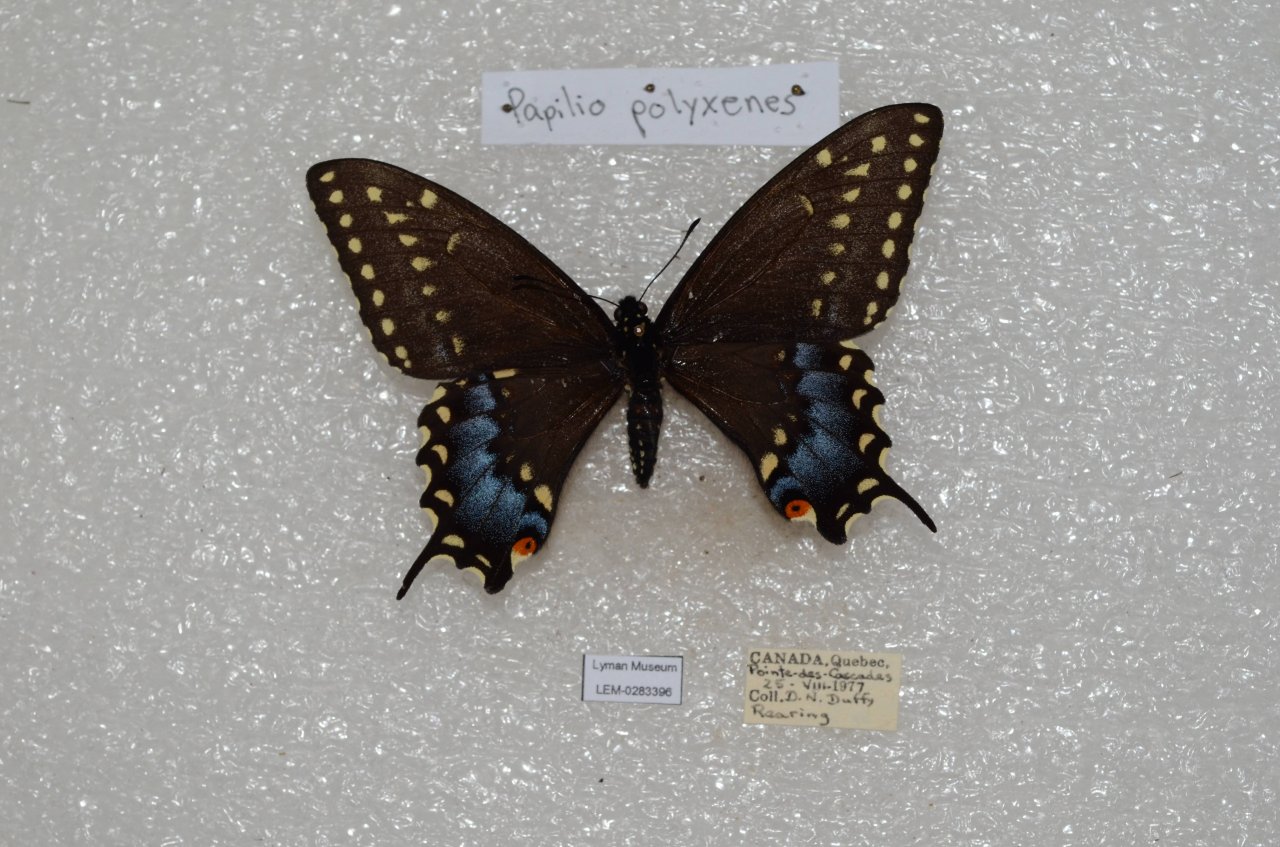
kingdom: Animalia
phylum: Arthropoda
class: Insecta
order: Lepidoptera
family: Papilionidae
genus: Papilio
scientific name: Papilio polyxenes
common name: Black Swallowtail
